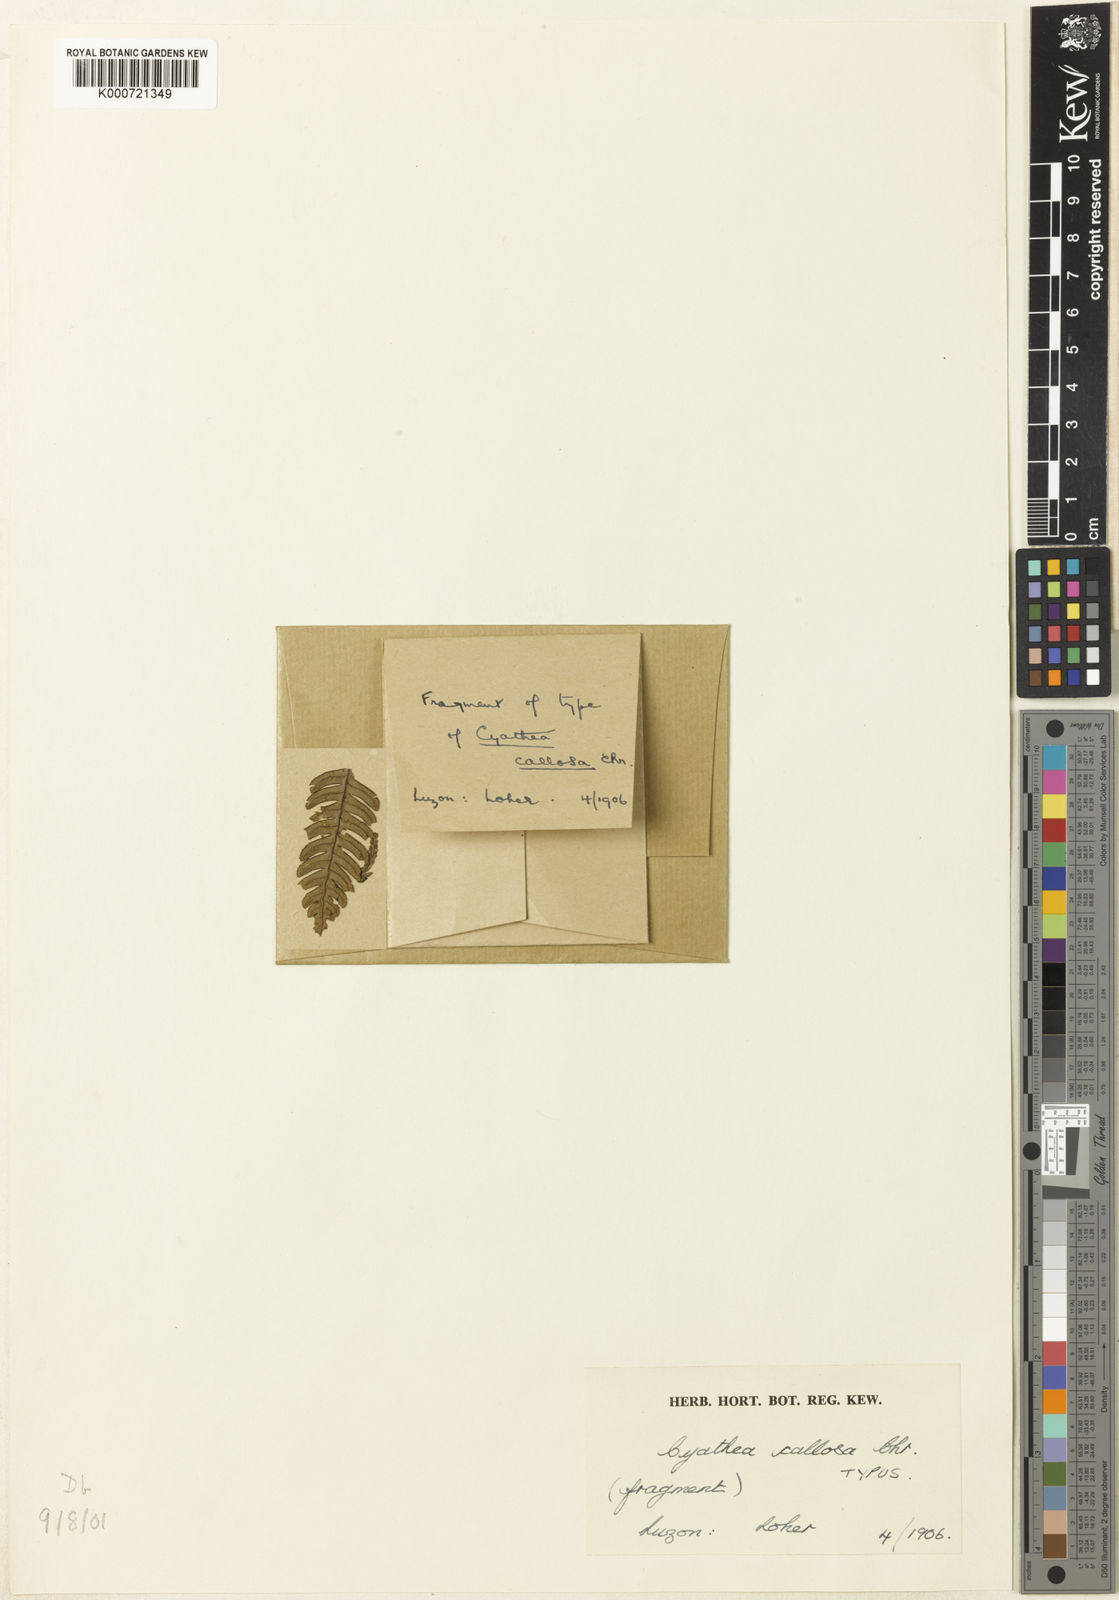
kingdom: Plantae
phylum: Tracheophyta
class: Polypodiopsida
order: Cyatheales
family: Cyatheaceae
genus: Alsophila
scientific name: Alsophila callosa
